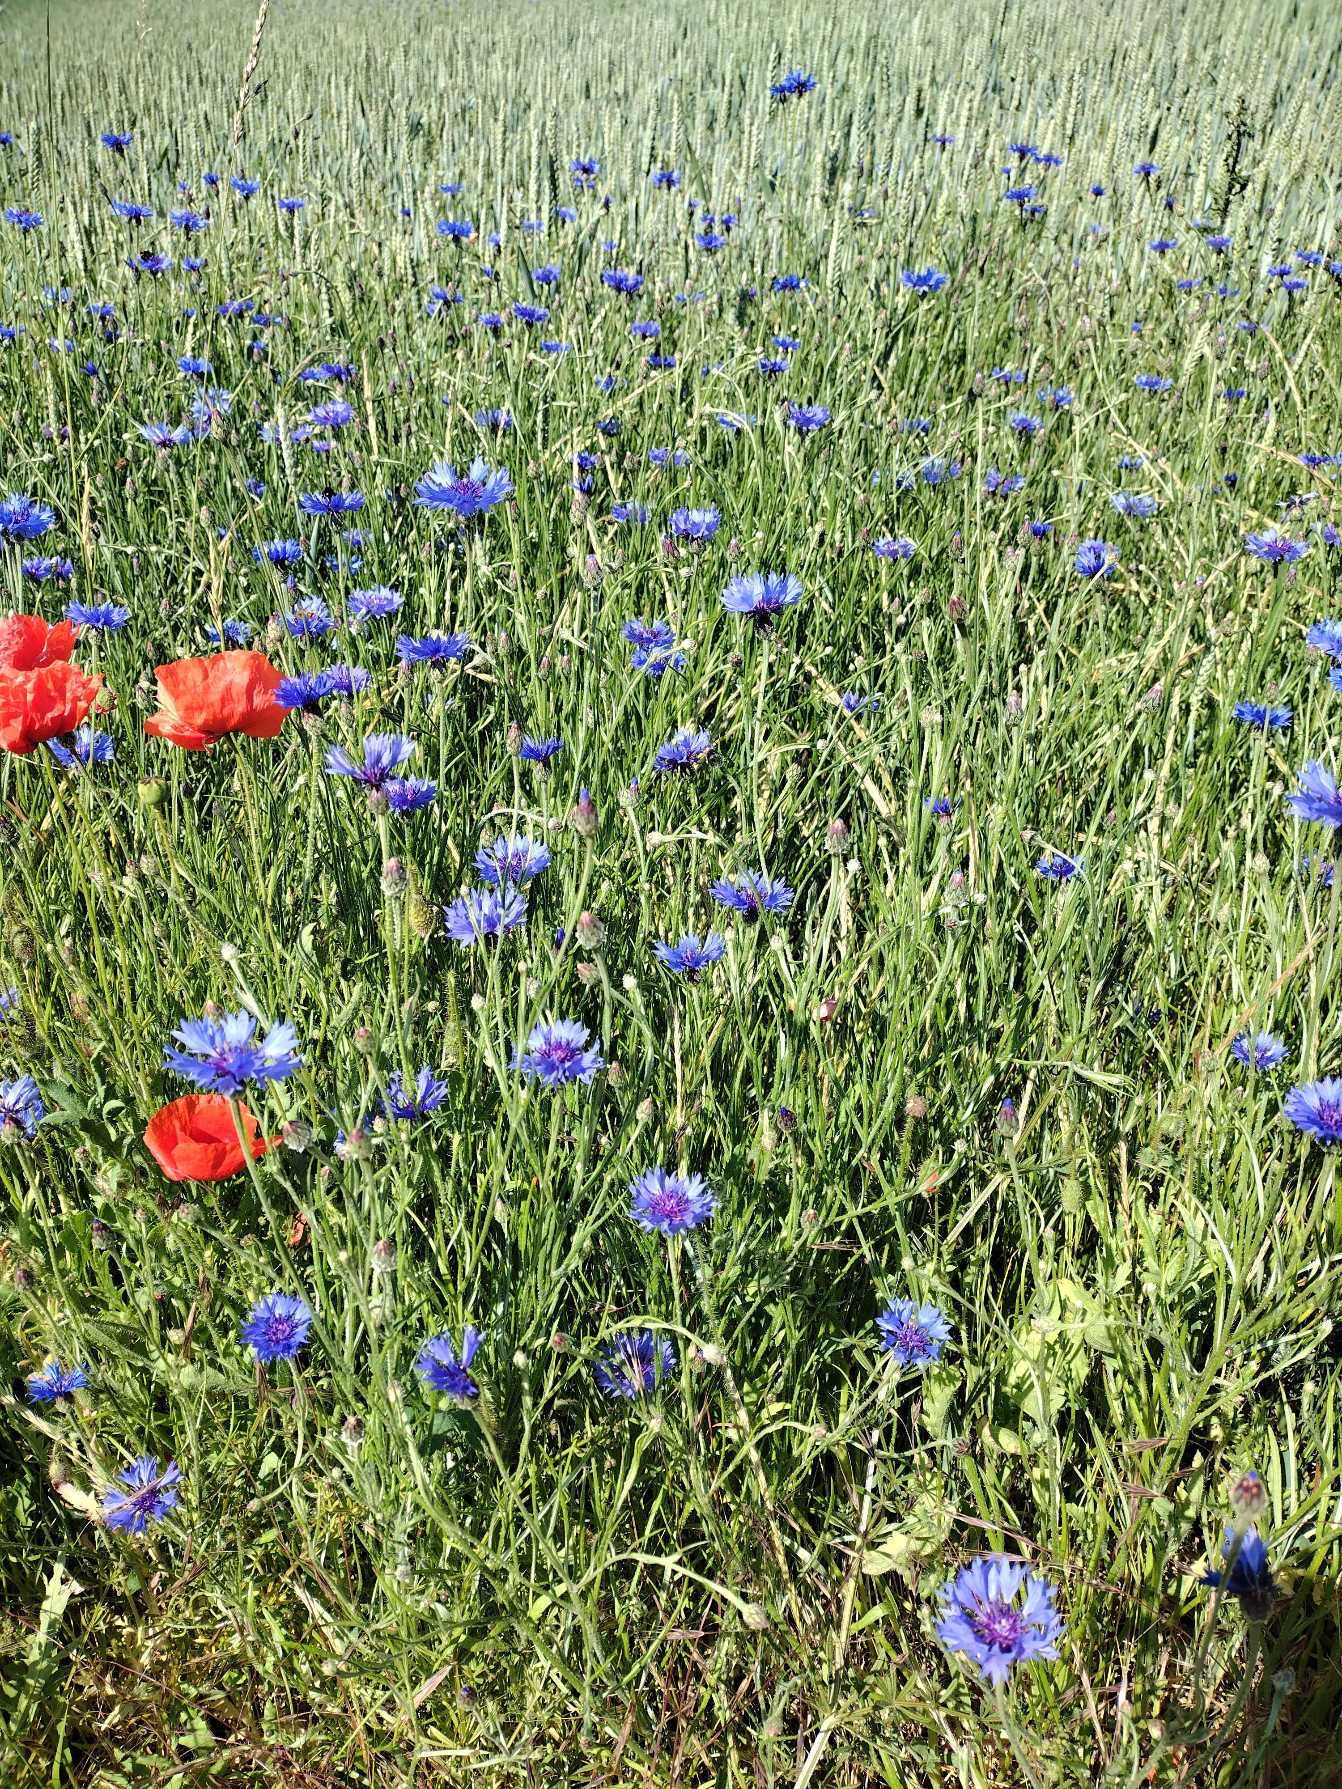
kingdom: Plantae
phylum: Tracheophyta
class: Magnoliopsida
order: Asterales
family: Asteraceae
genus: Centaurea
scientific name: Centaurea cyanus
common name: Kornblomst
